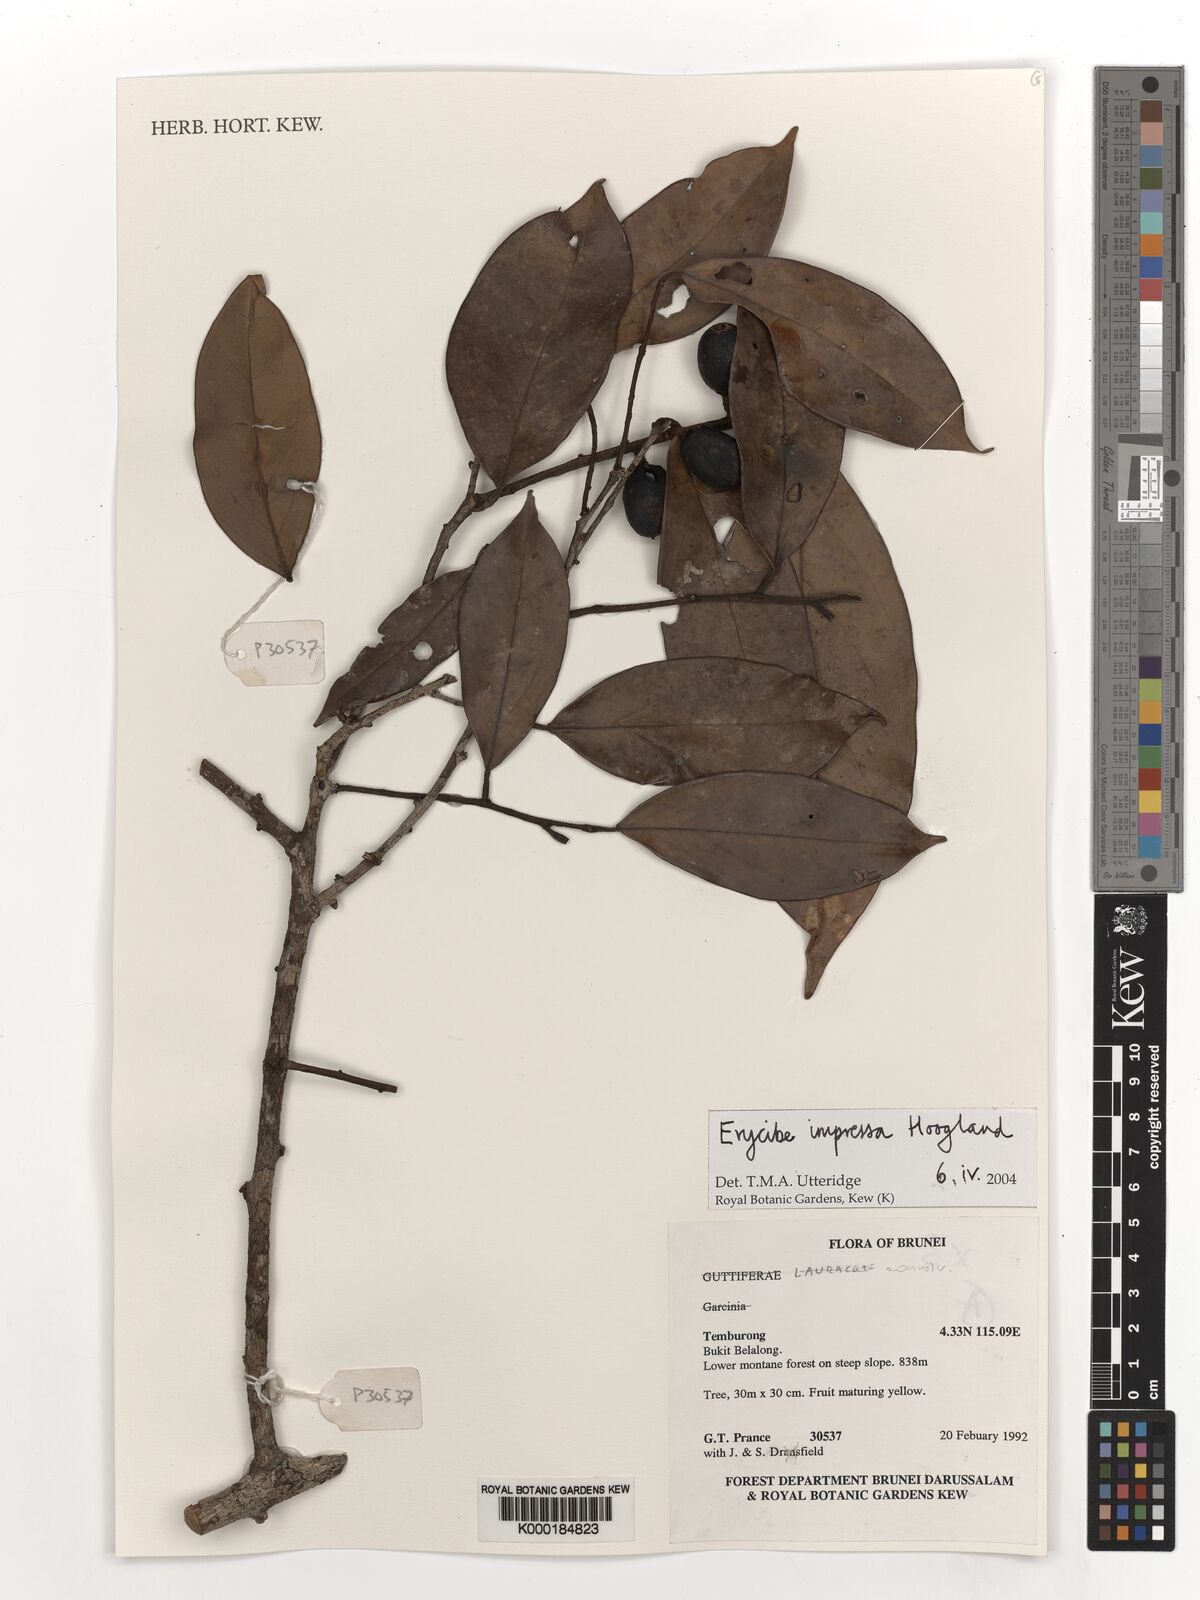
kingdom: Plantae
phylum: Tracheophyta
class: Magnoliopsida
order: Solanales
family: Convolvulaceae
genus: Erycibe
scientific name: Erycibe impressa
